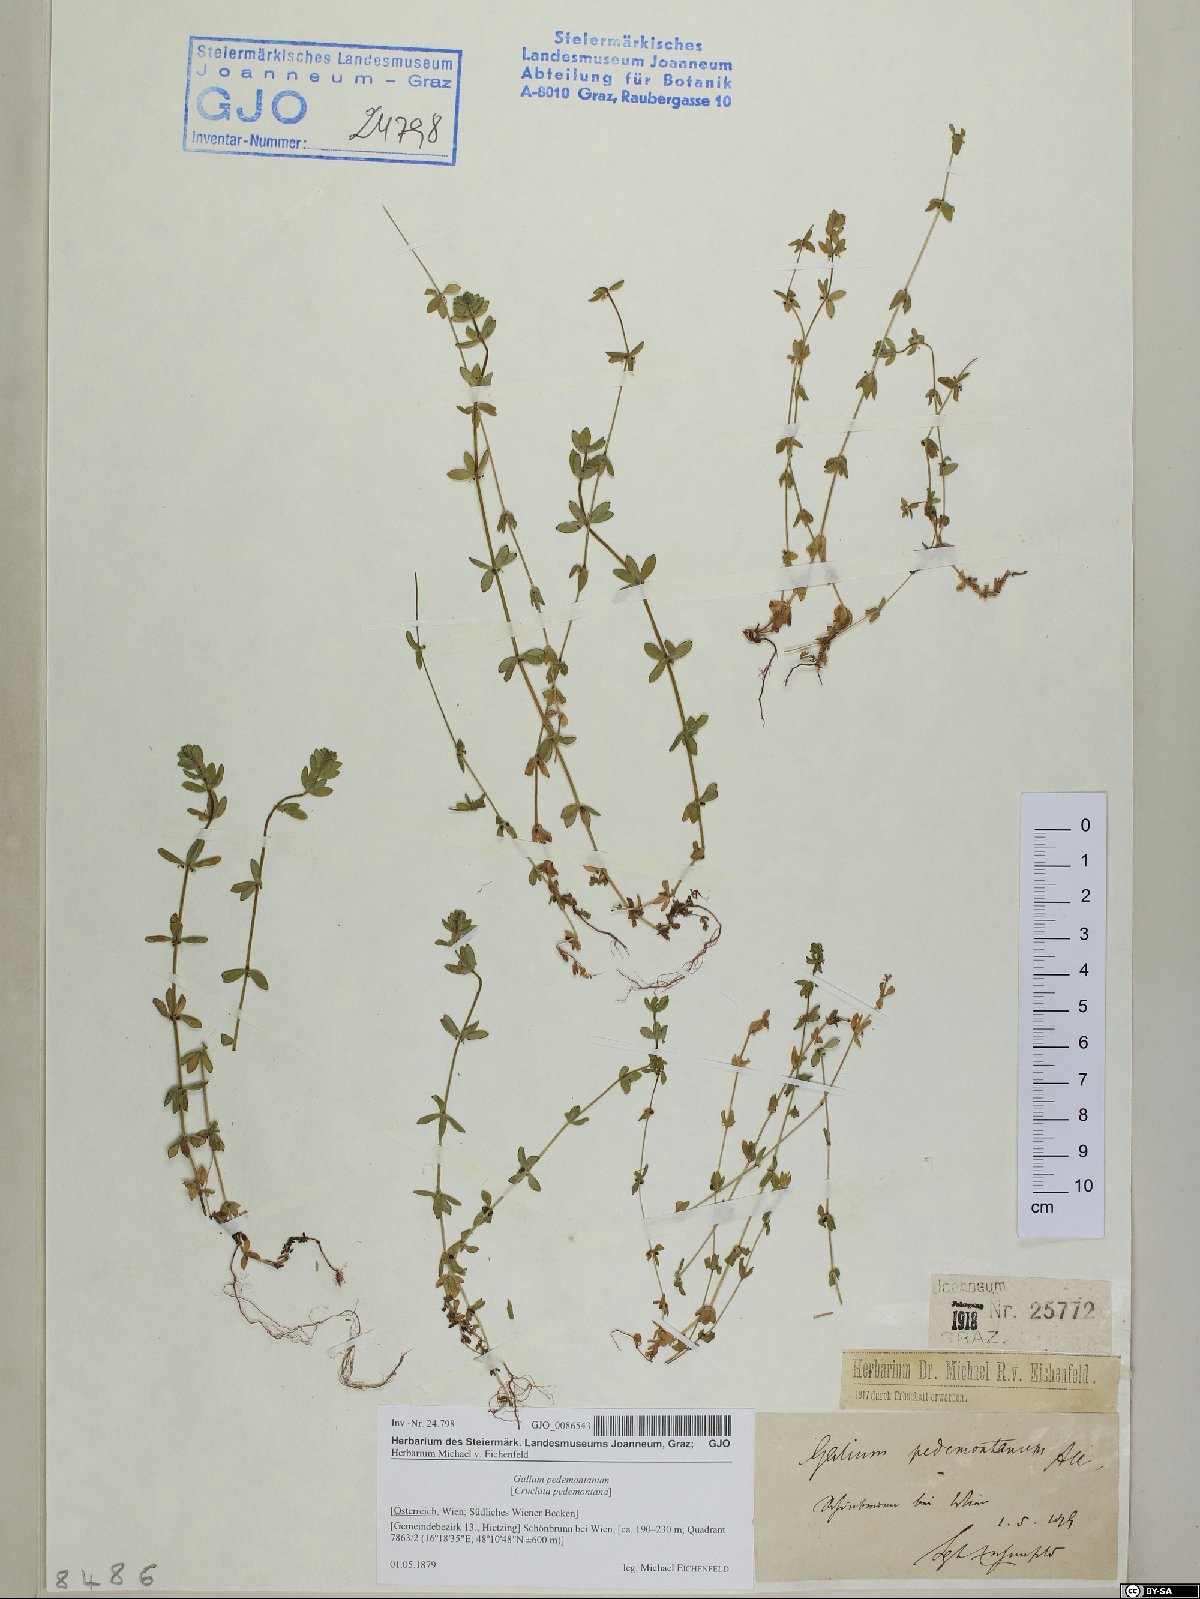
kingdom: Plantae
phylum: Tracheophyta
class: Magnoliopsida
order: Gentianales
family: Rubiaceae
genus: Cruciata
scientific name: Cruciata pedemontana
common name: Piedmont bedstraw
